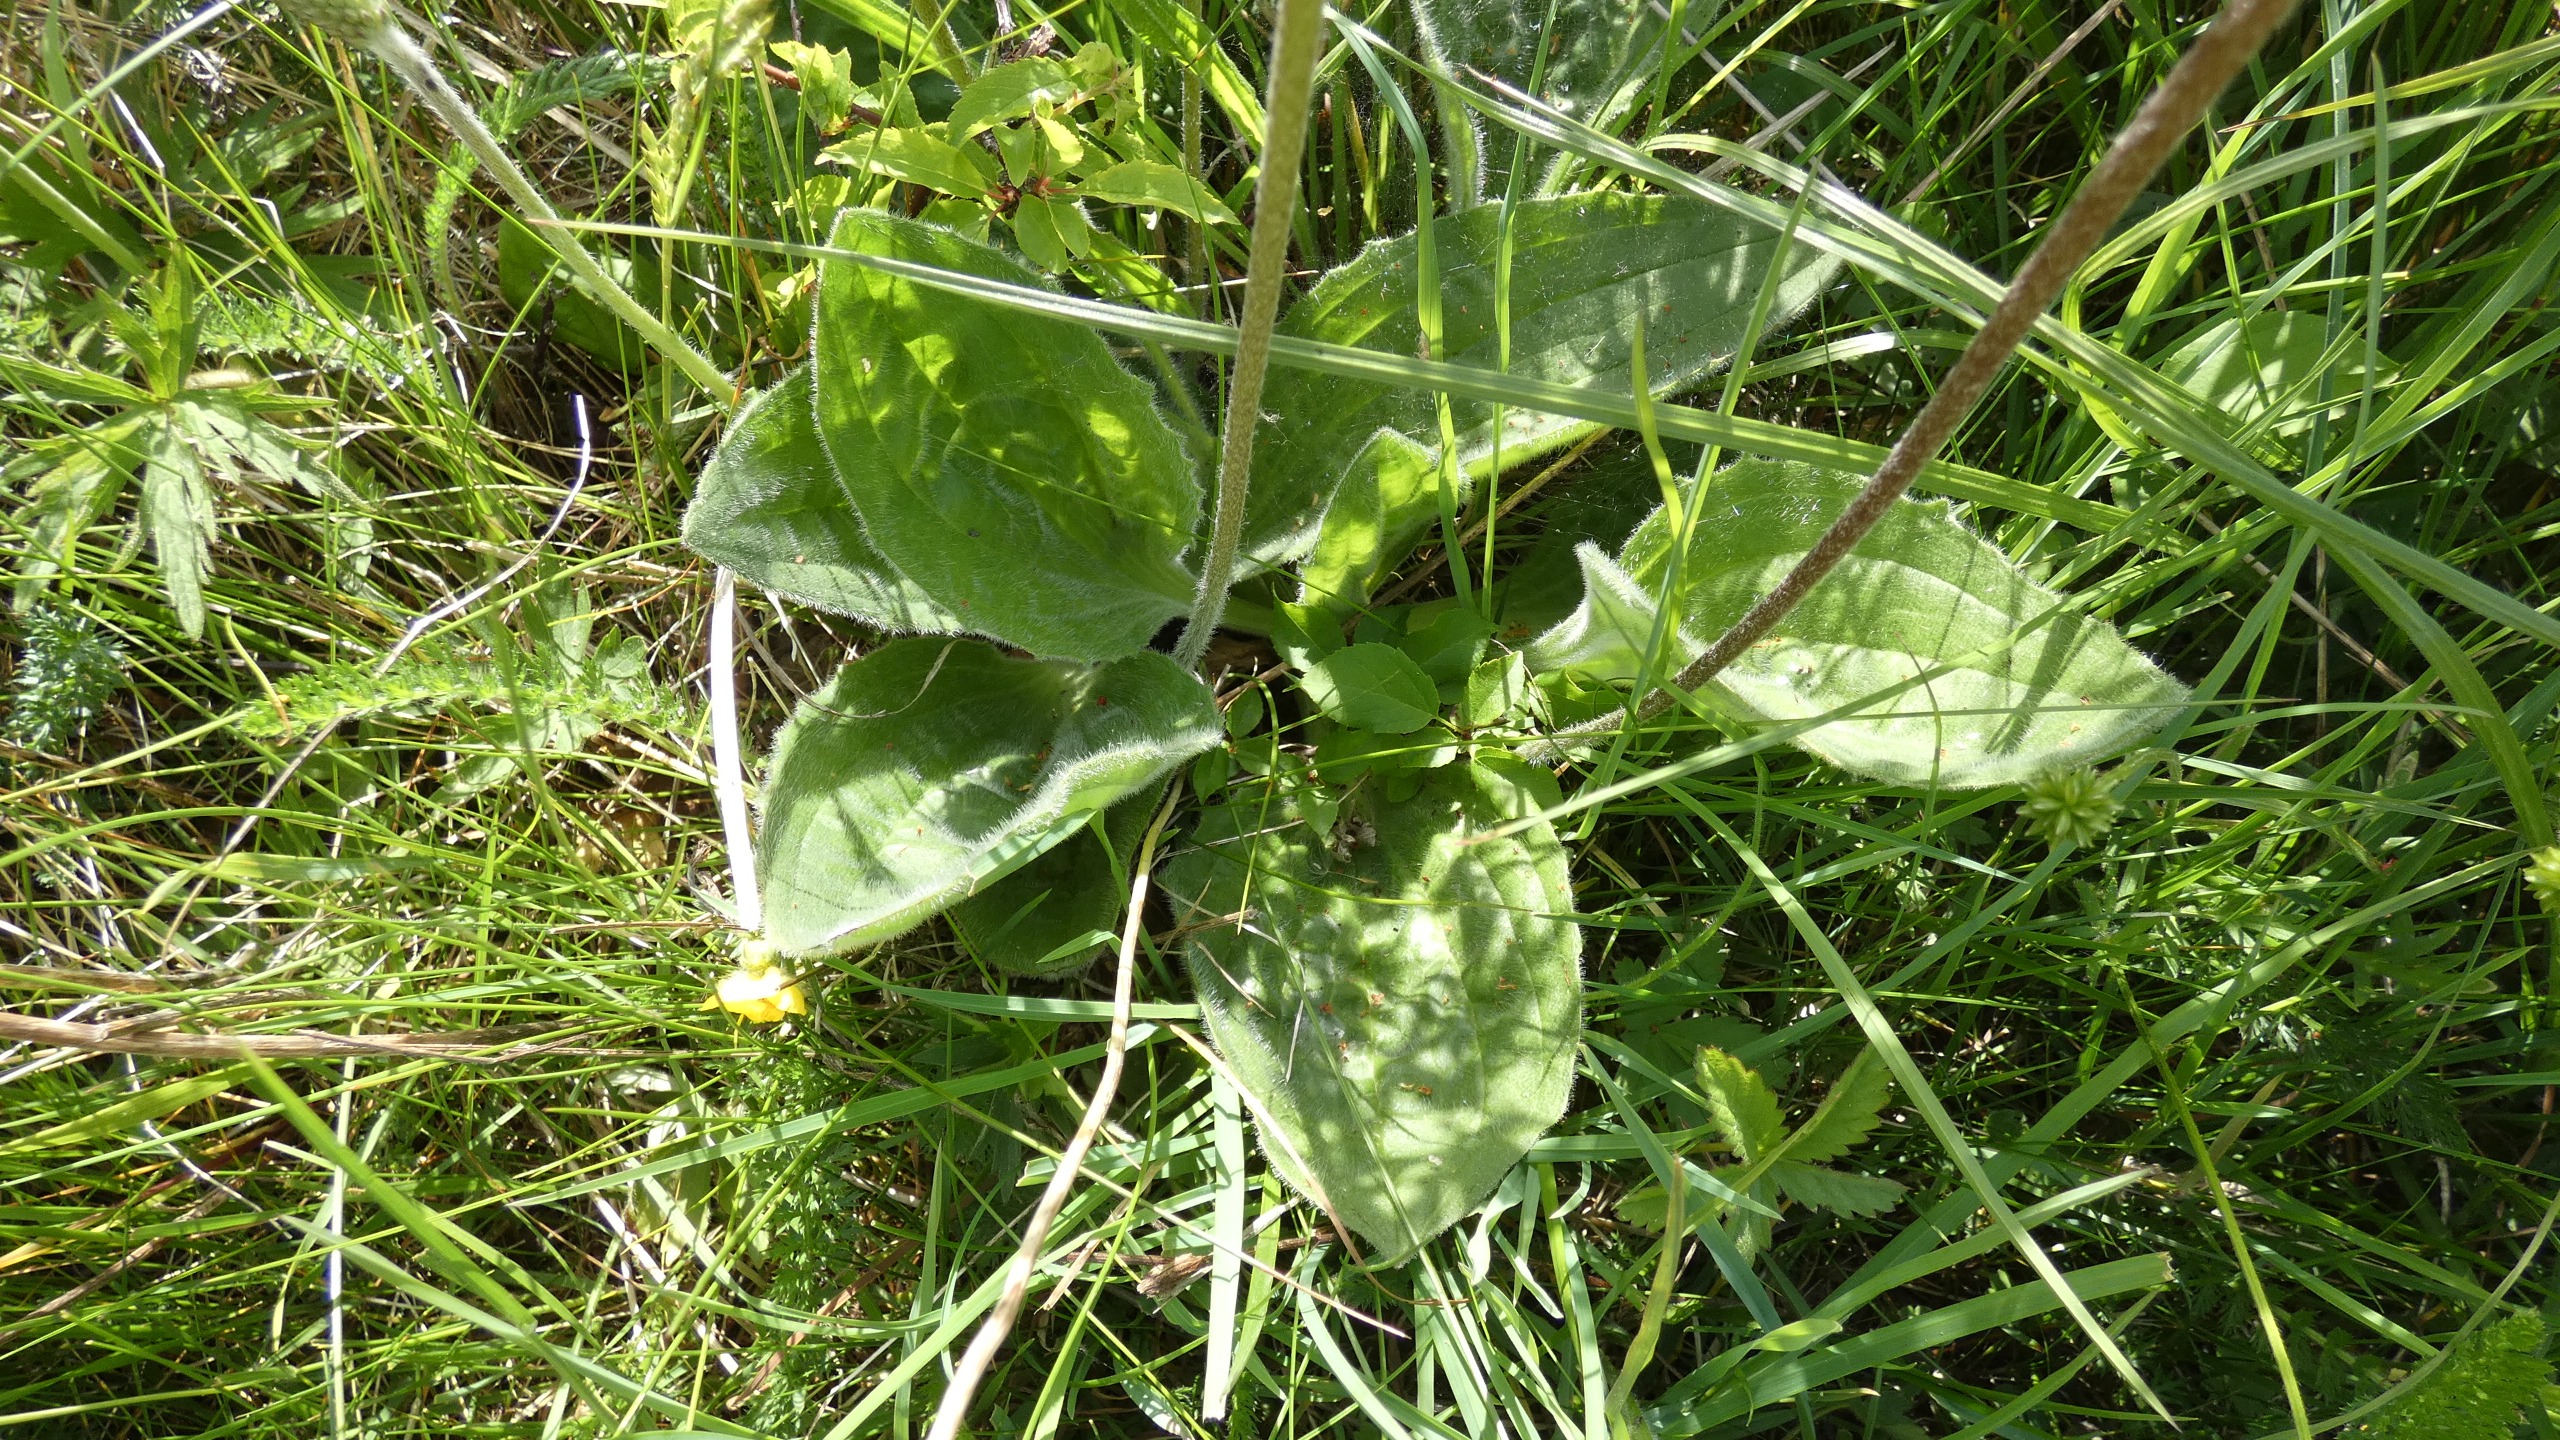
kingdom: Plantae
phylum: Tracheophyta
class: Magnoliopsida
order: Lamiales
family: Plantaginaceae
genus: Plantago
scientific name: Plantago media
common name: Dunet vejbred
